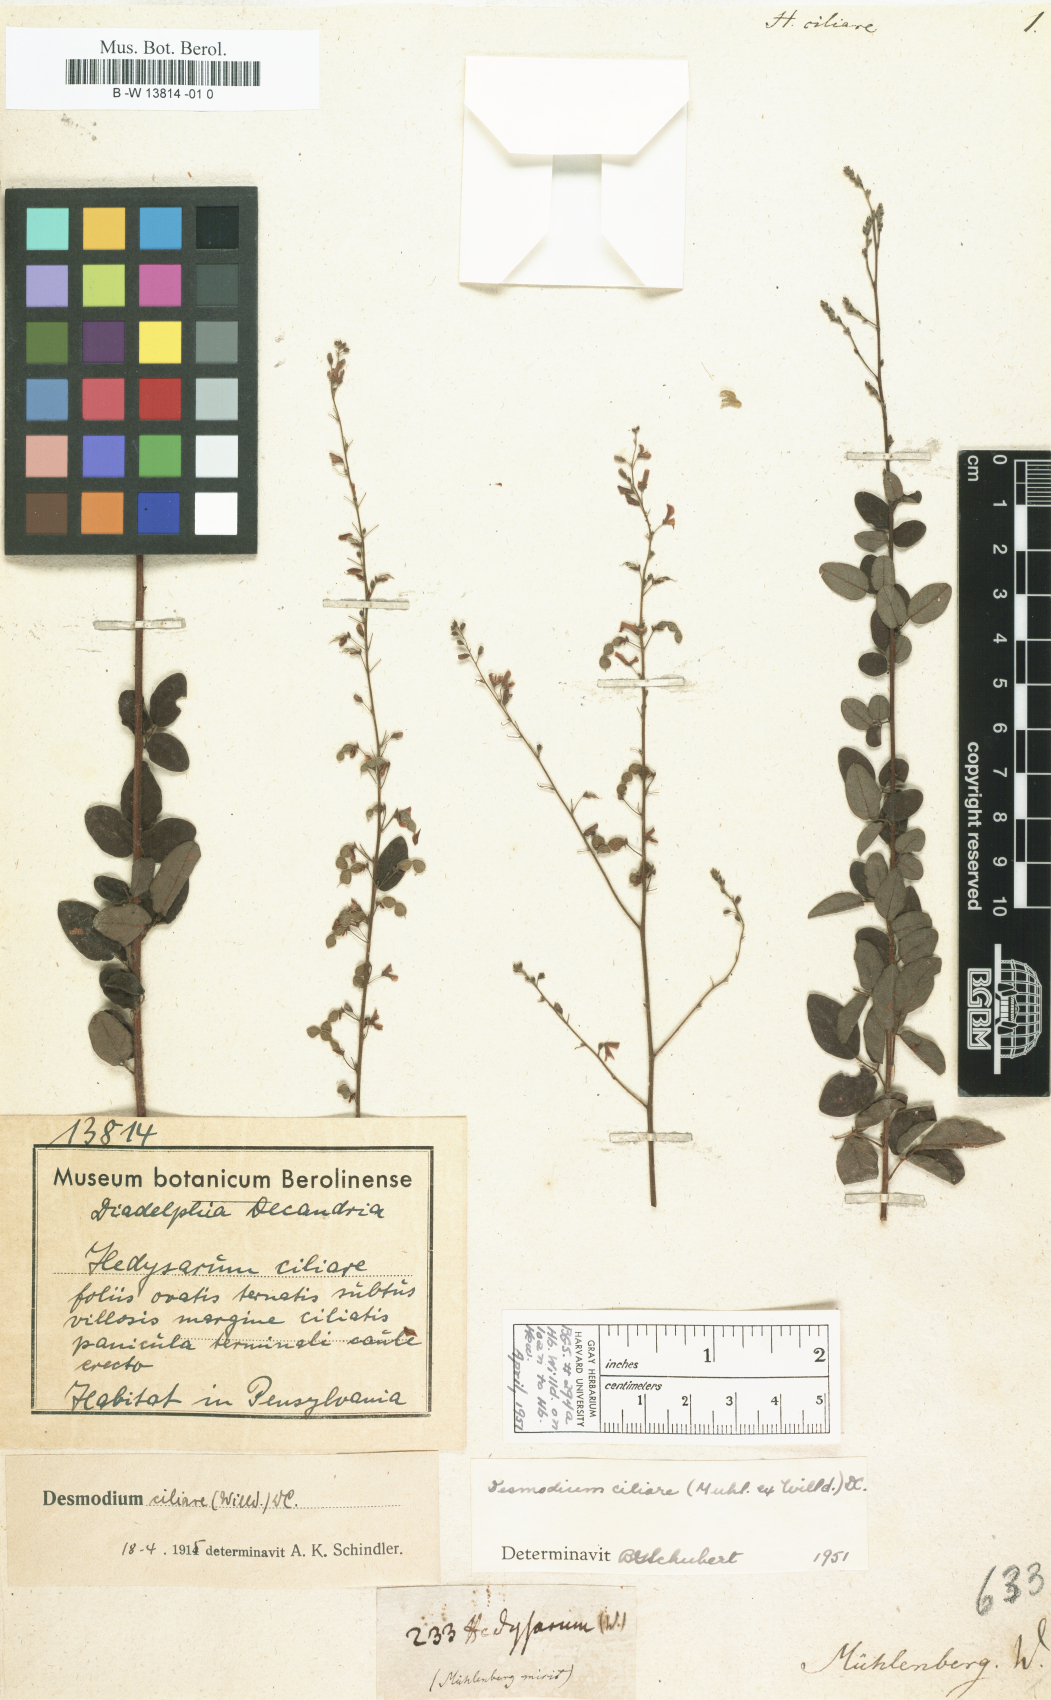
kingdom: Plantae
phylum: Tracheophyta
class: Magnoliopsida
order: Fabales
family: Fabaceae
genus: Desmodium
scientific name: Desmodium ciliare
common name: Hairy small-leaf ticktrefoil
